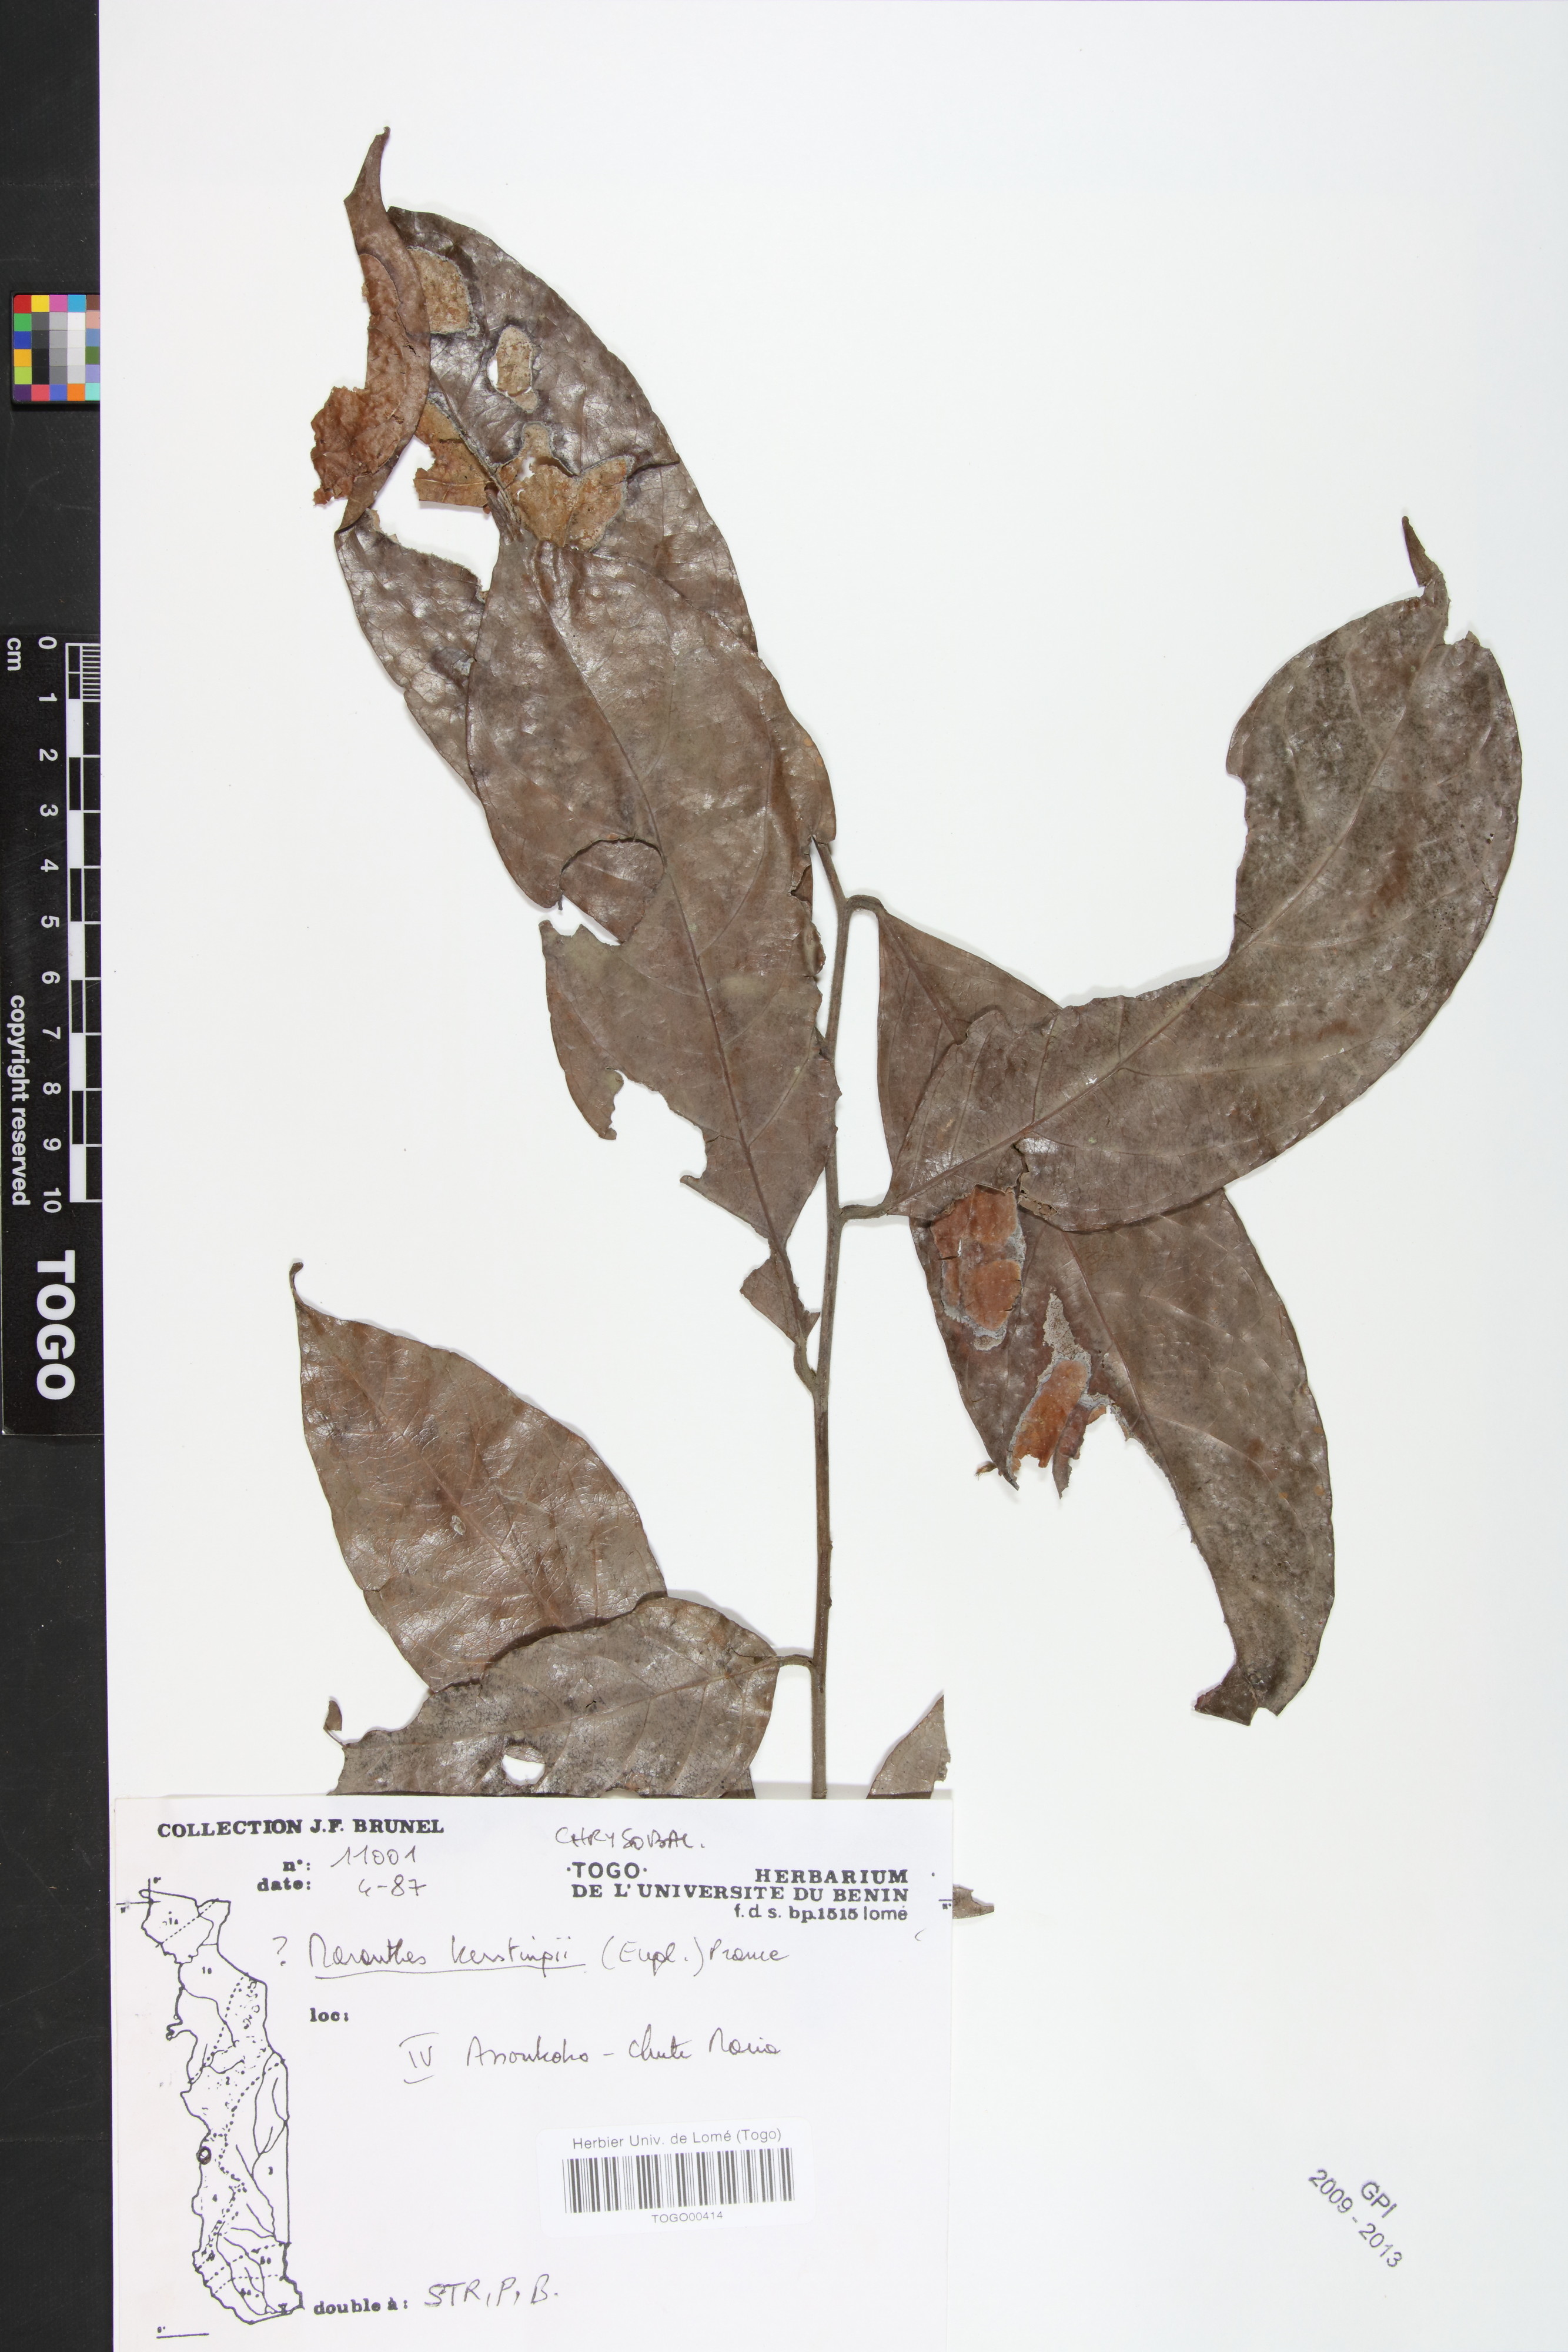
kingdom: Plantae
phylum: Tracheophyta
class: Magnoliopsida
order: Malpighiales
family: Chrysobalanaceae
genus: Maranthes
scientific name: Maranthes kerstingii
